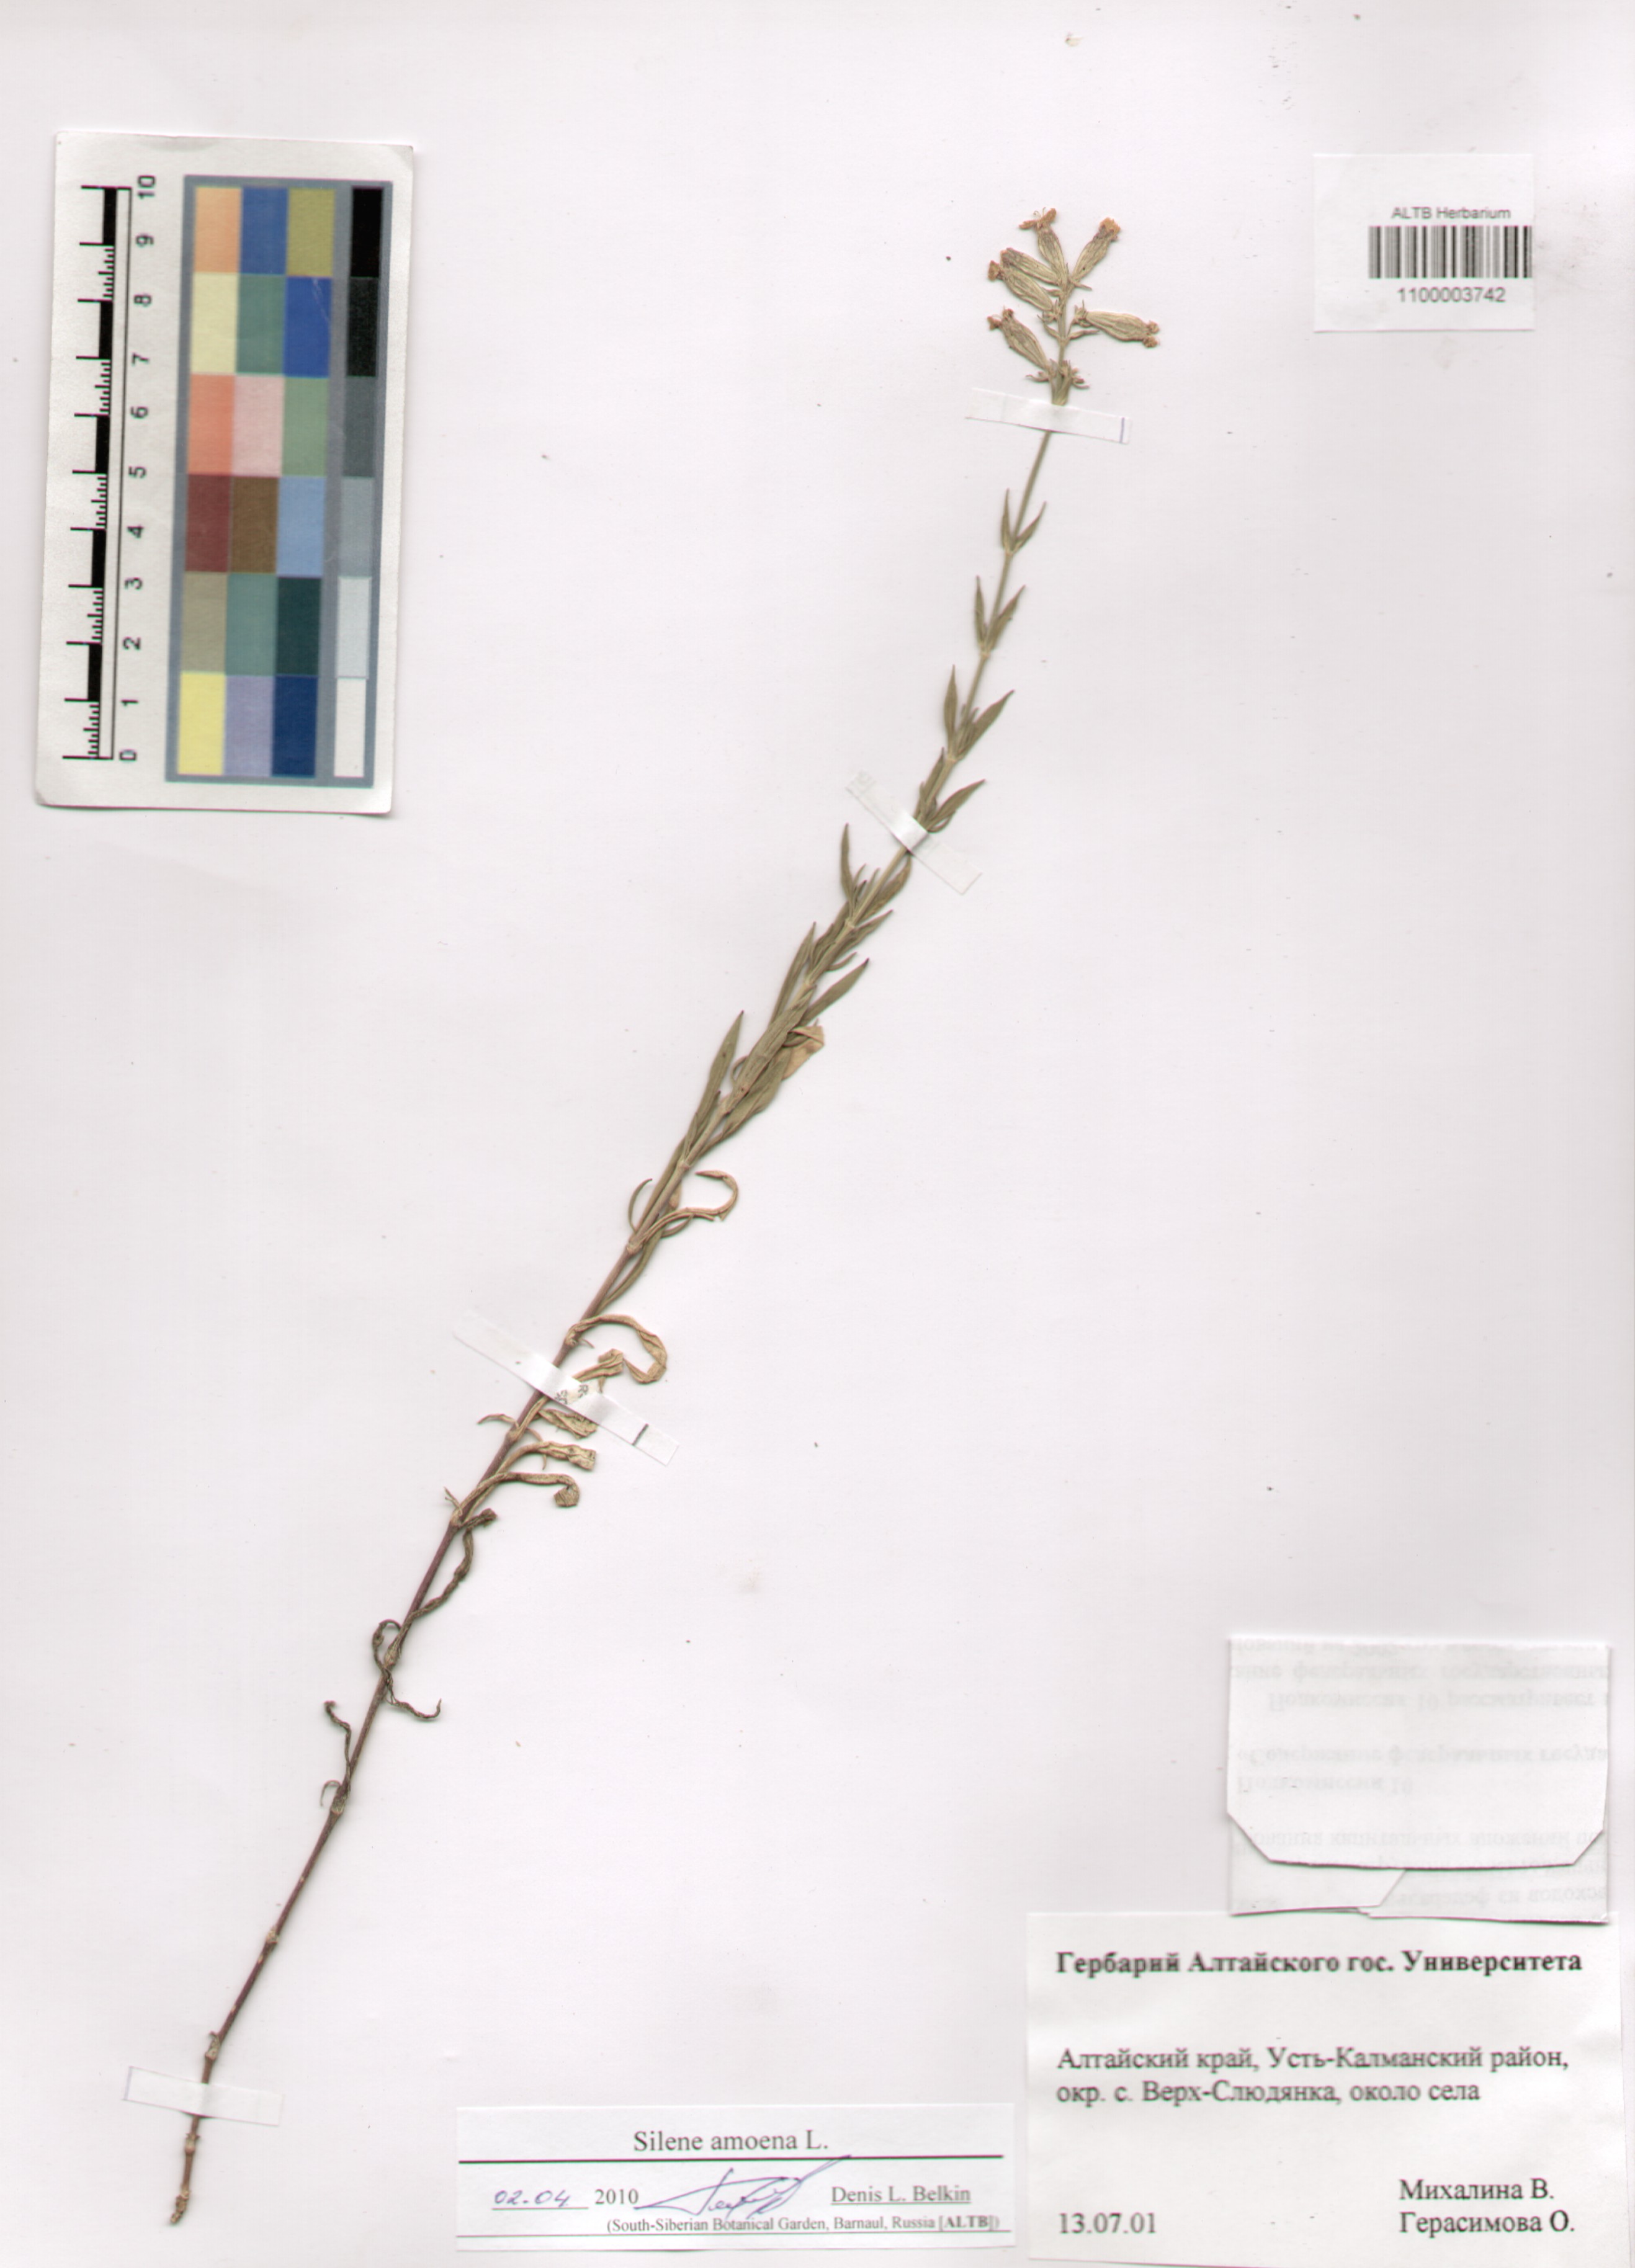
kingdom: Plantae
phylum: Tracheophyta
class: Magnoliopsida
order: Caryophyllales
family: Caryophyllaceae
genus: Silene
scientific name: Silene amoena
